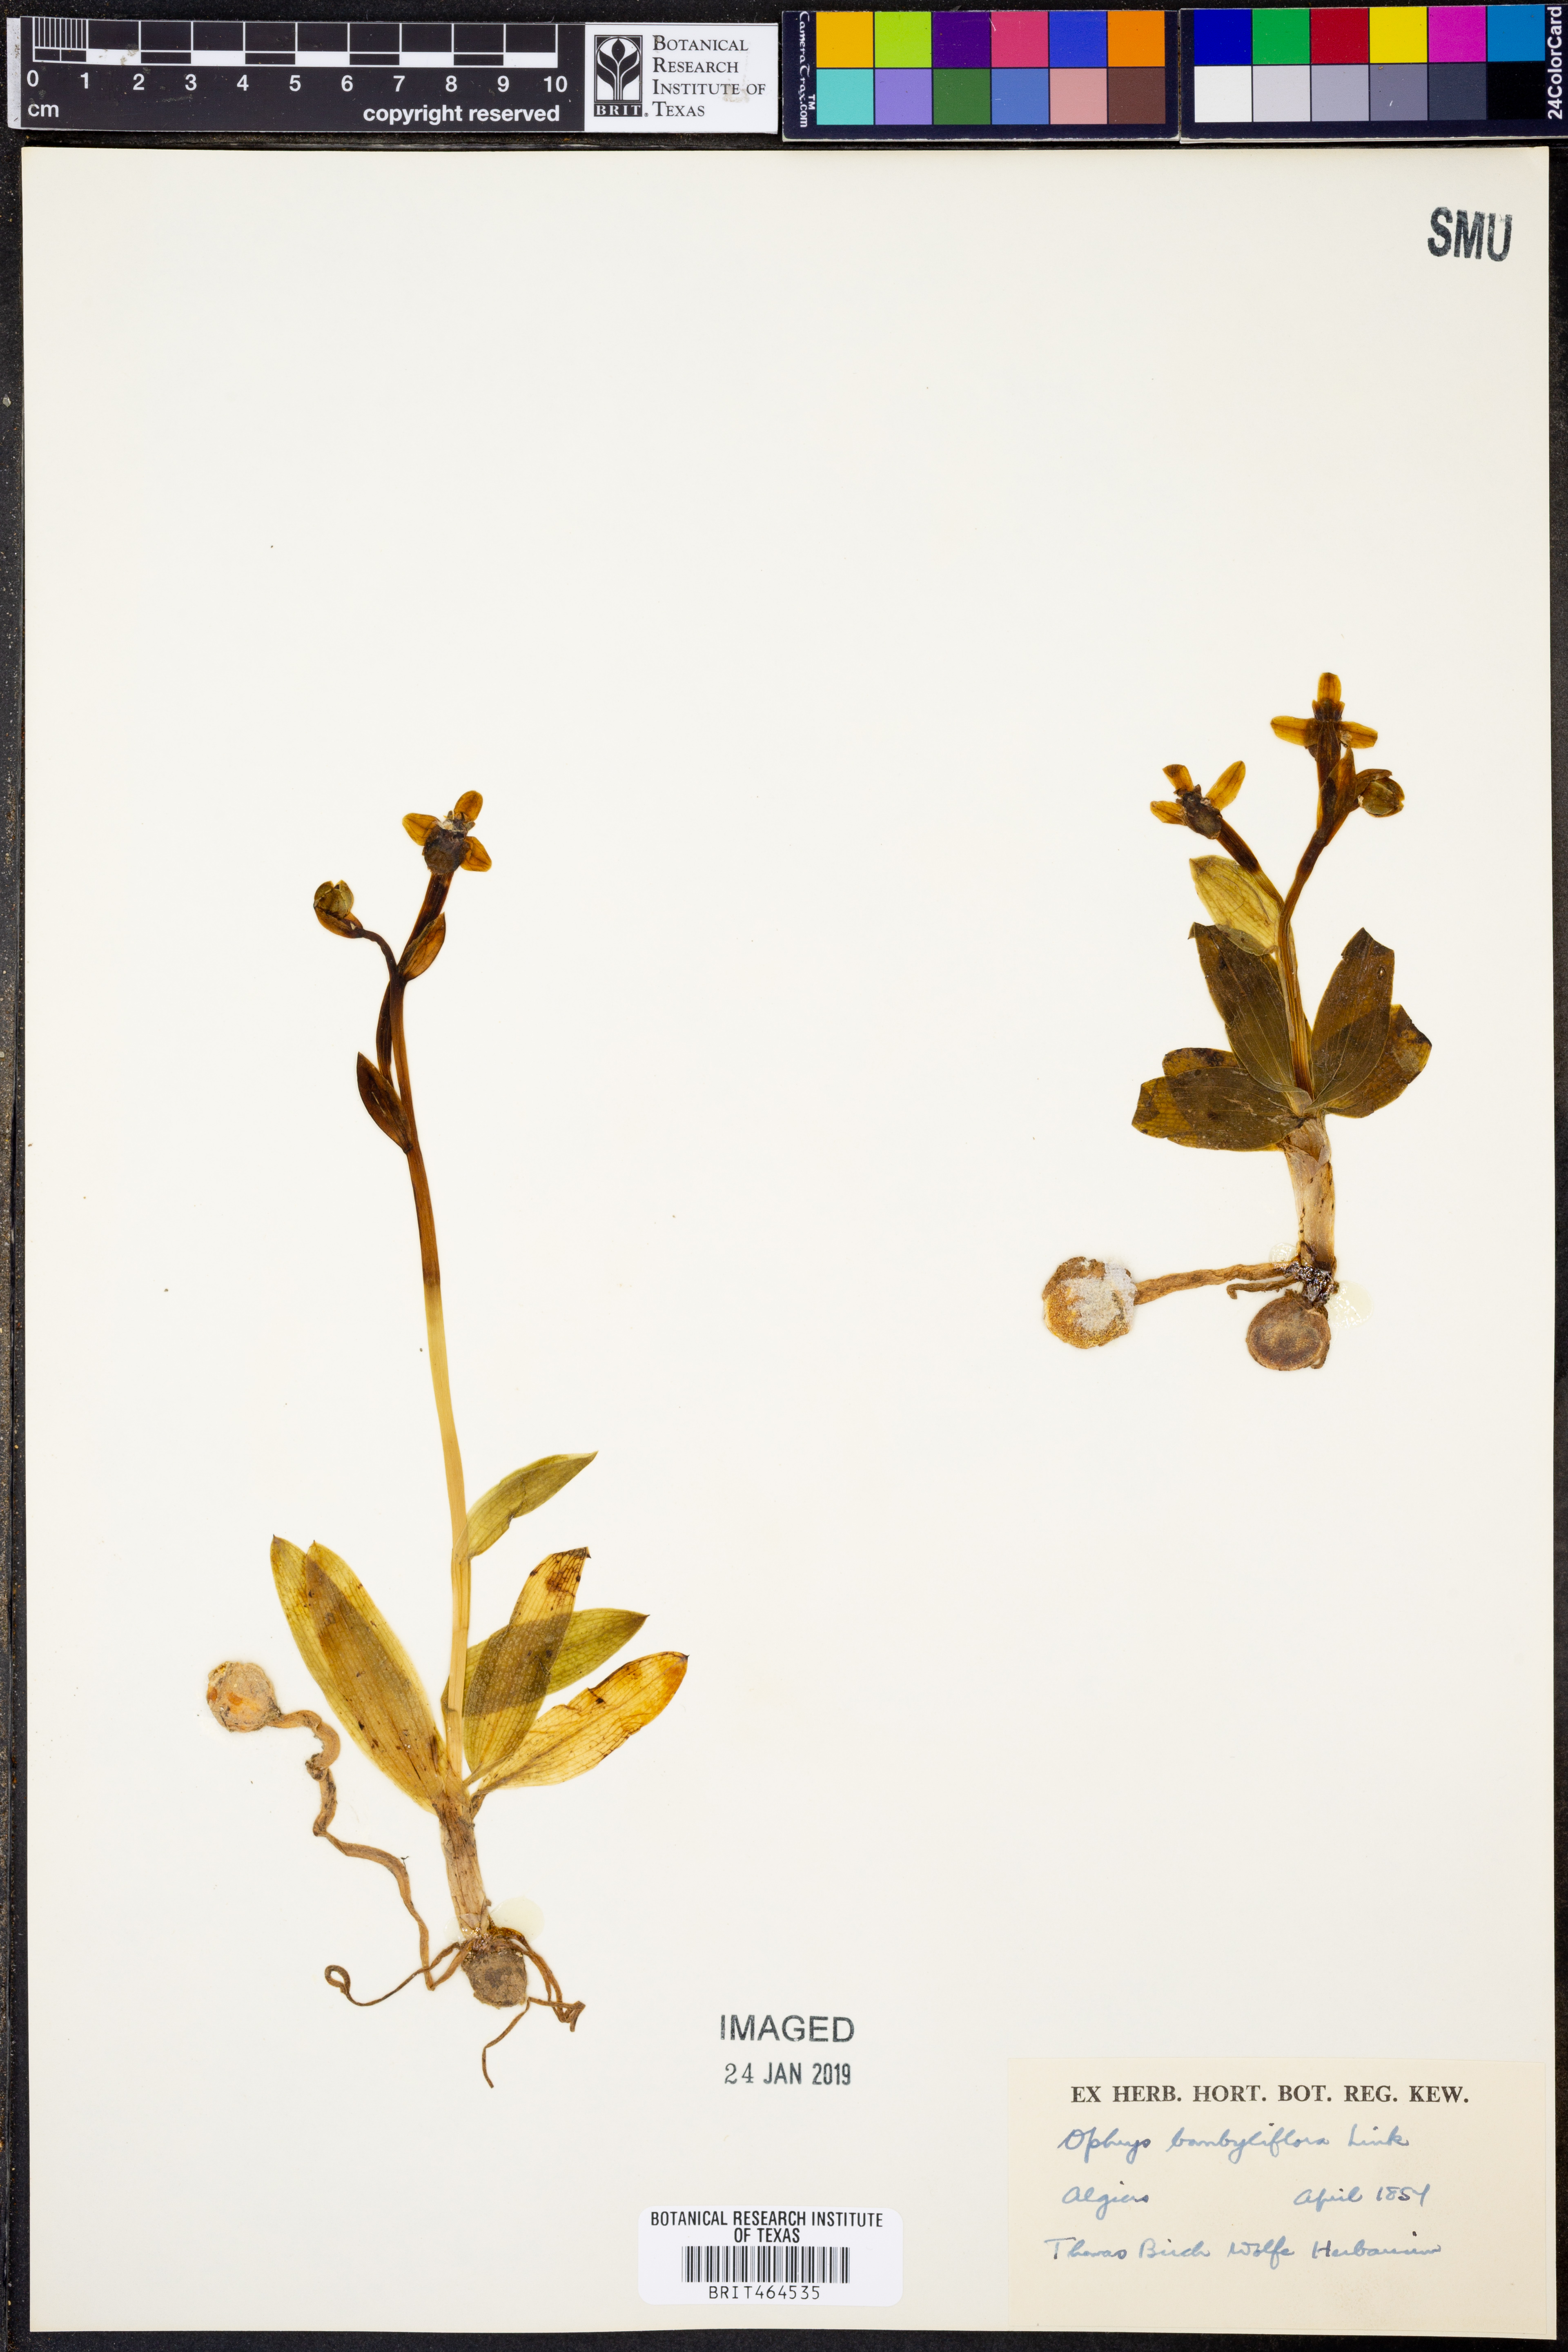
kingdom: Plantae
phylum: Tracheophyta
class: Liliopsida
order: Asparagales
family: Orchidaceae
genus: Ophrys
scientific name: Ophrys bombyliflora
